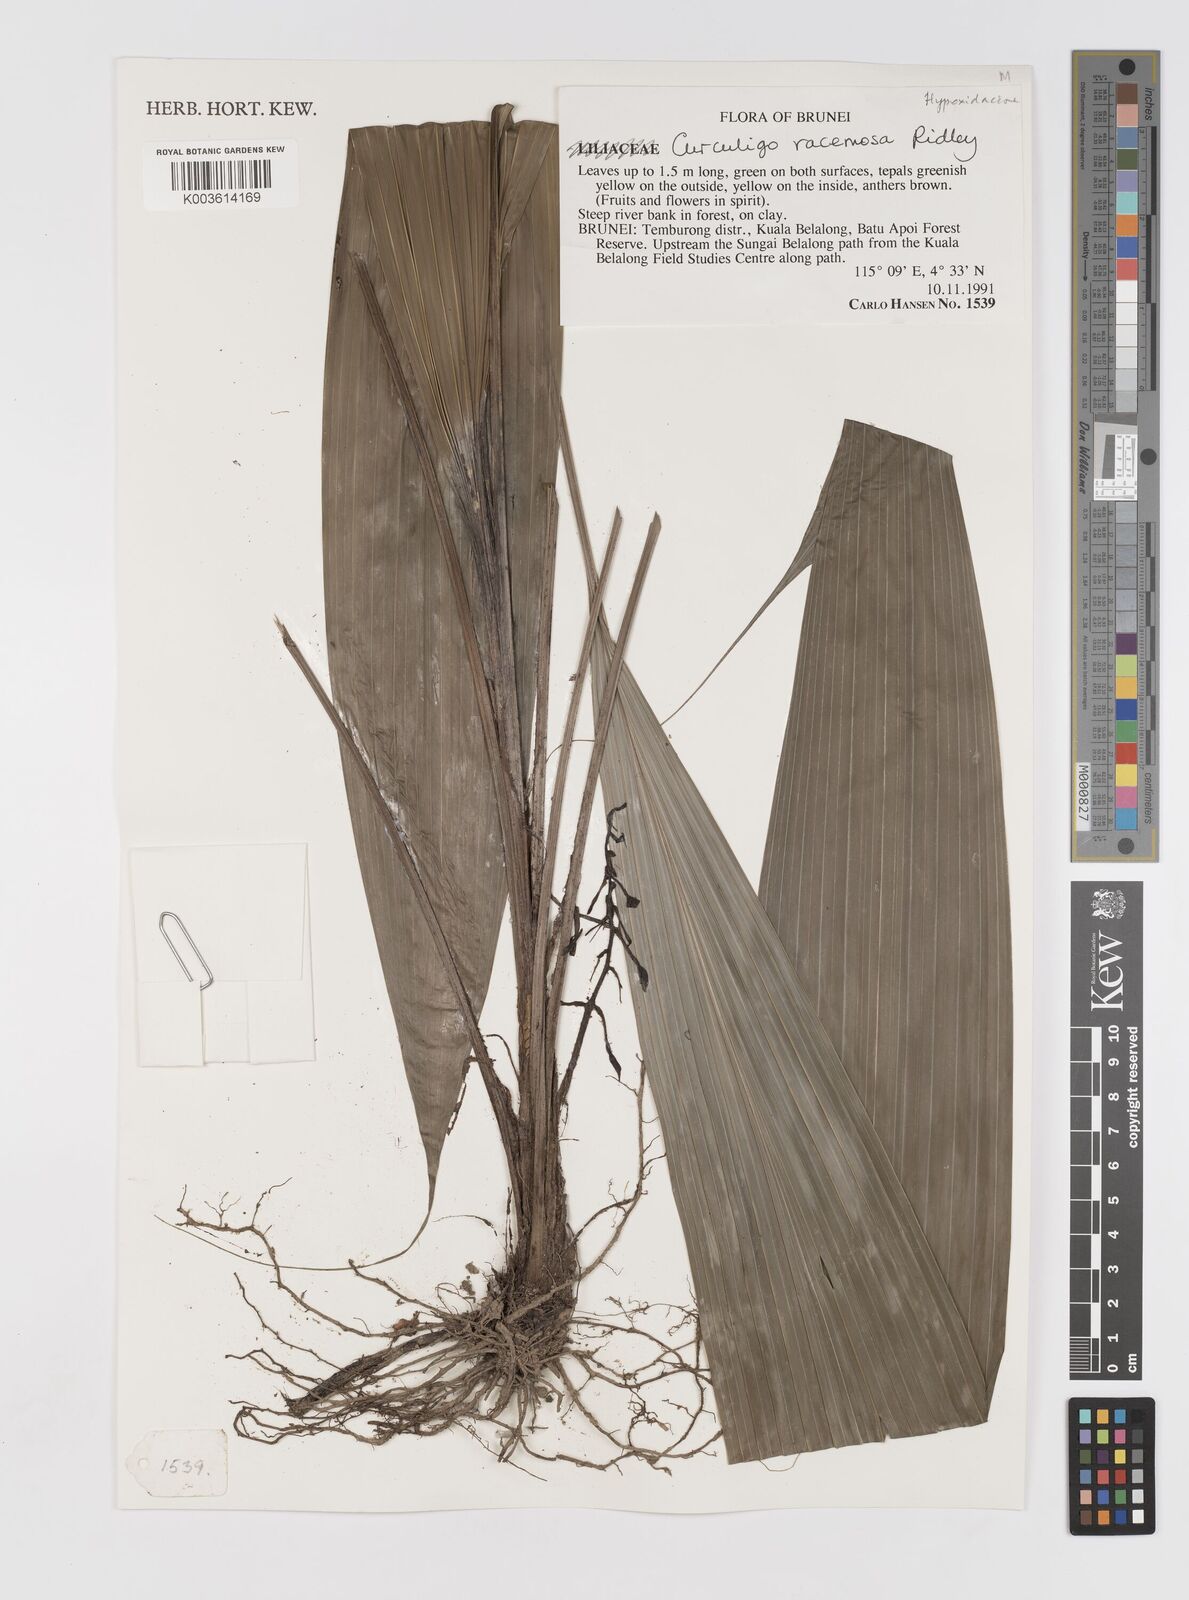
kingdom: Plantae
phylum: Tracheophyta
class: Liliopsida
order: Asparagales
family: Hypoxidaceae
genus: Curculigo
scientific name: Curculigo racemosa
